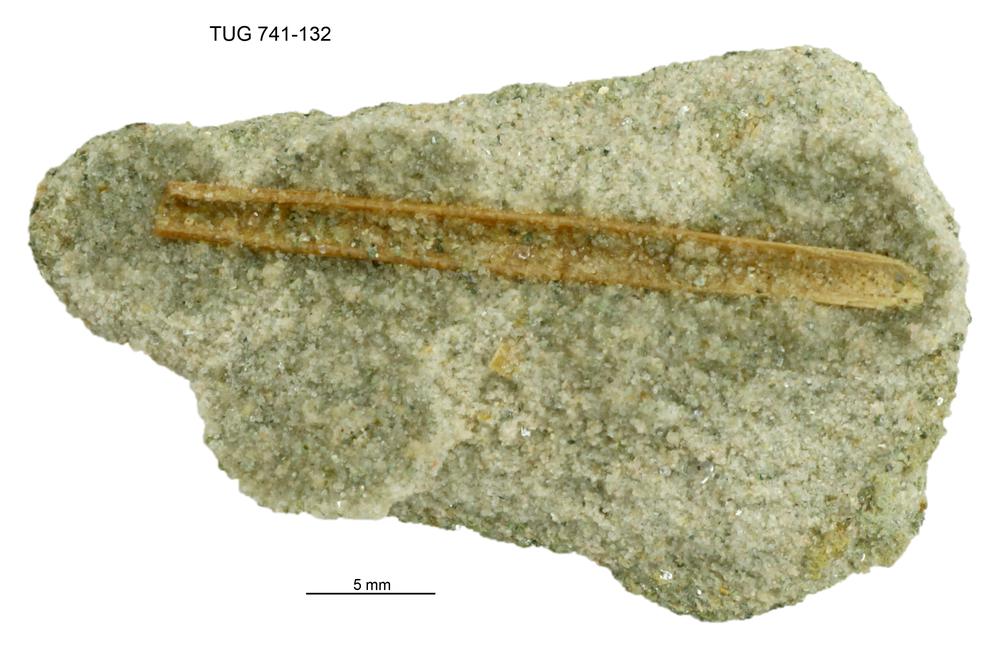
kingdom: Animalia
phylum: Chordata
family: Acanthodidae
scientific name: Acanthodidae
